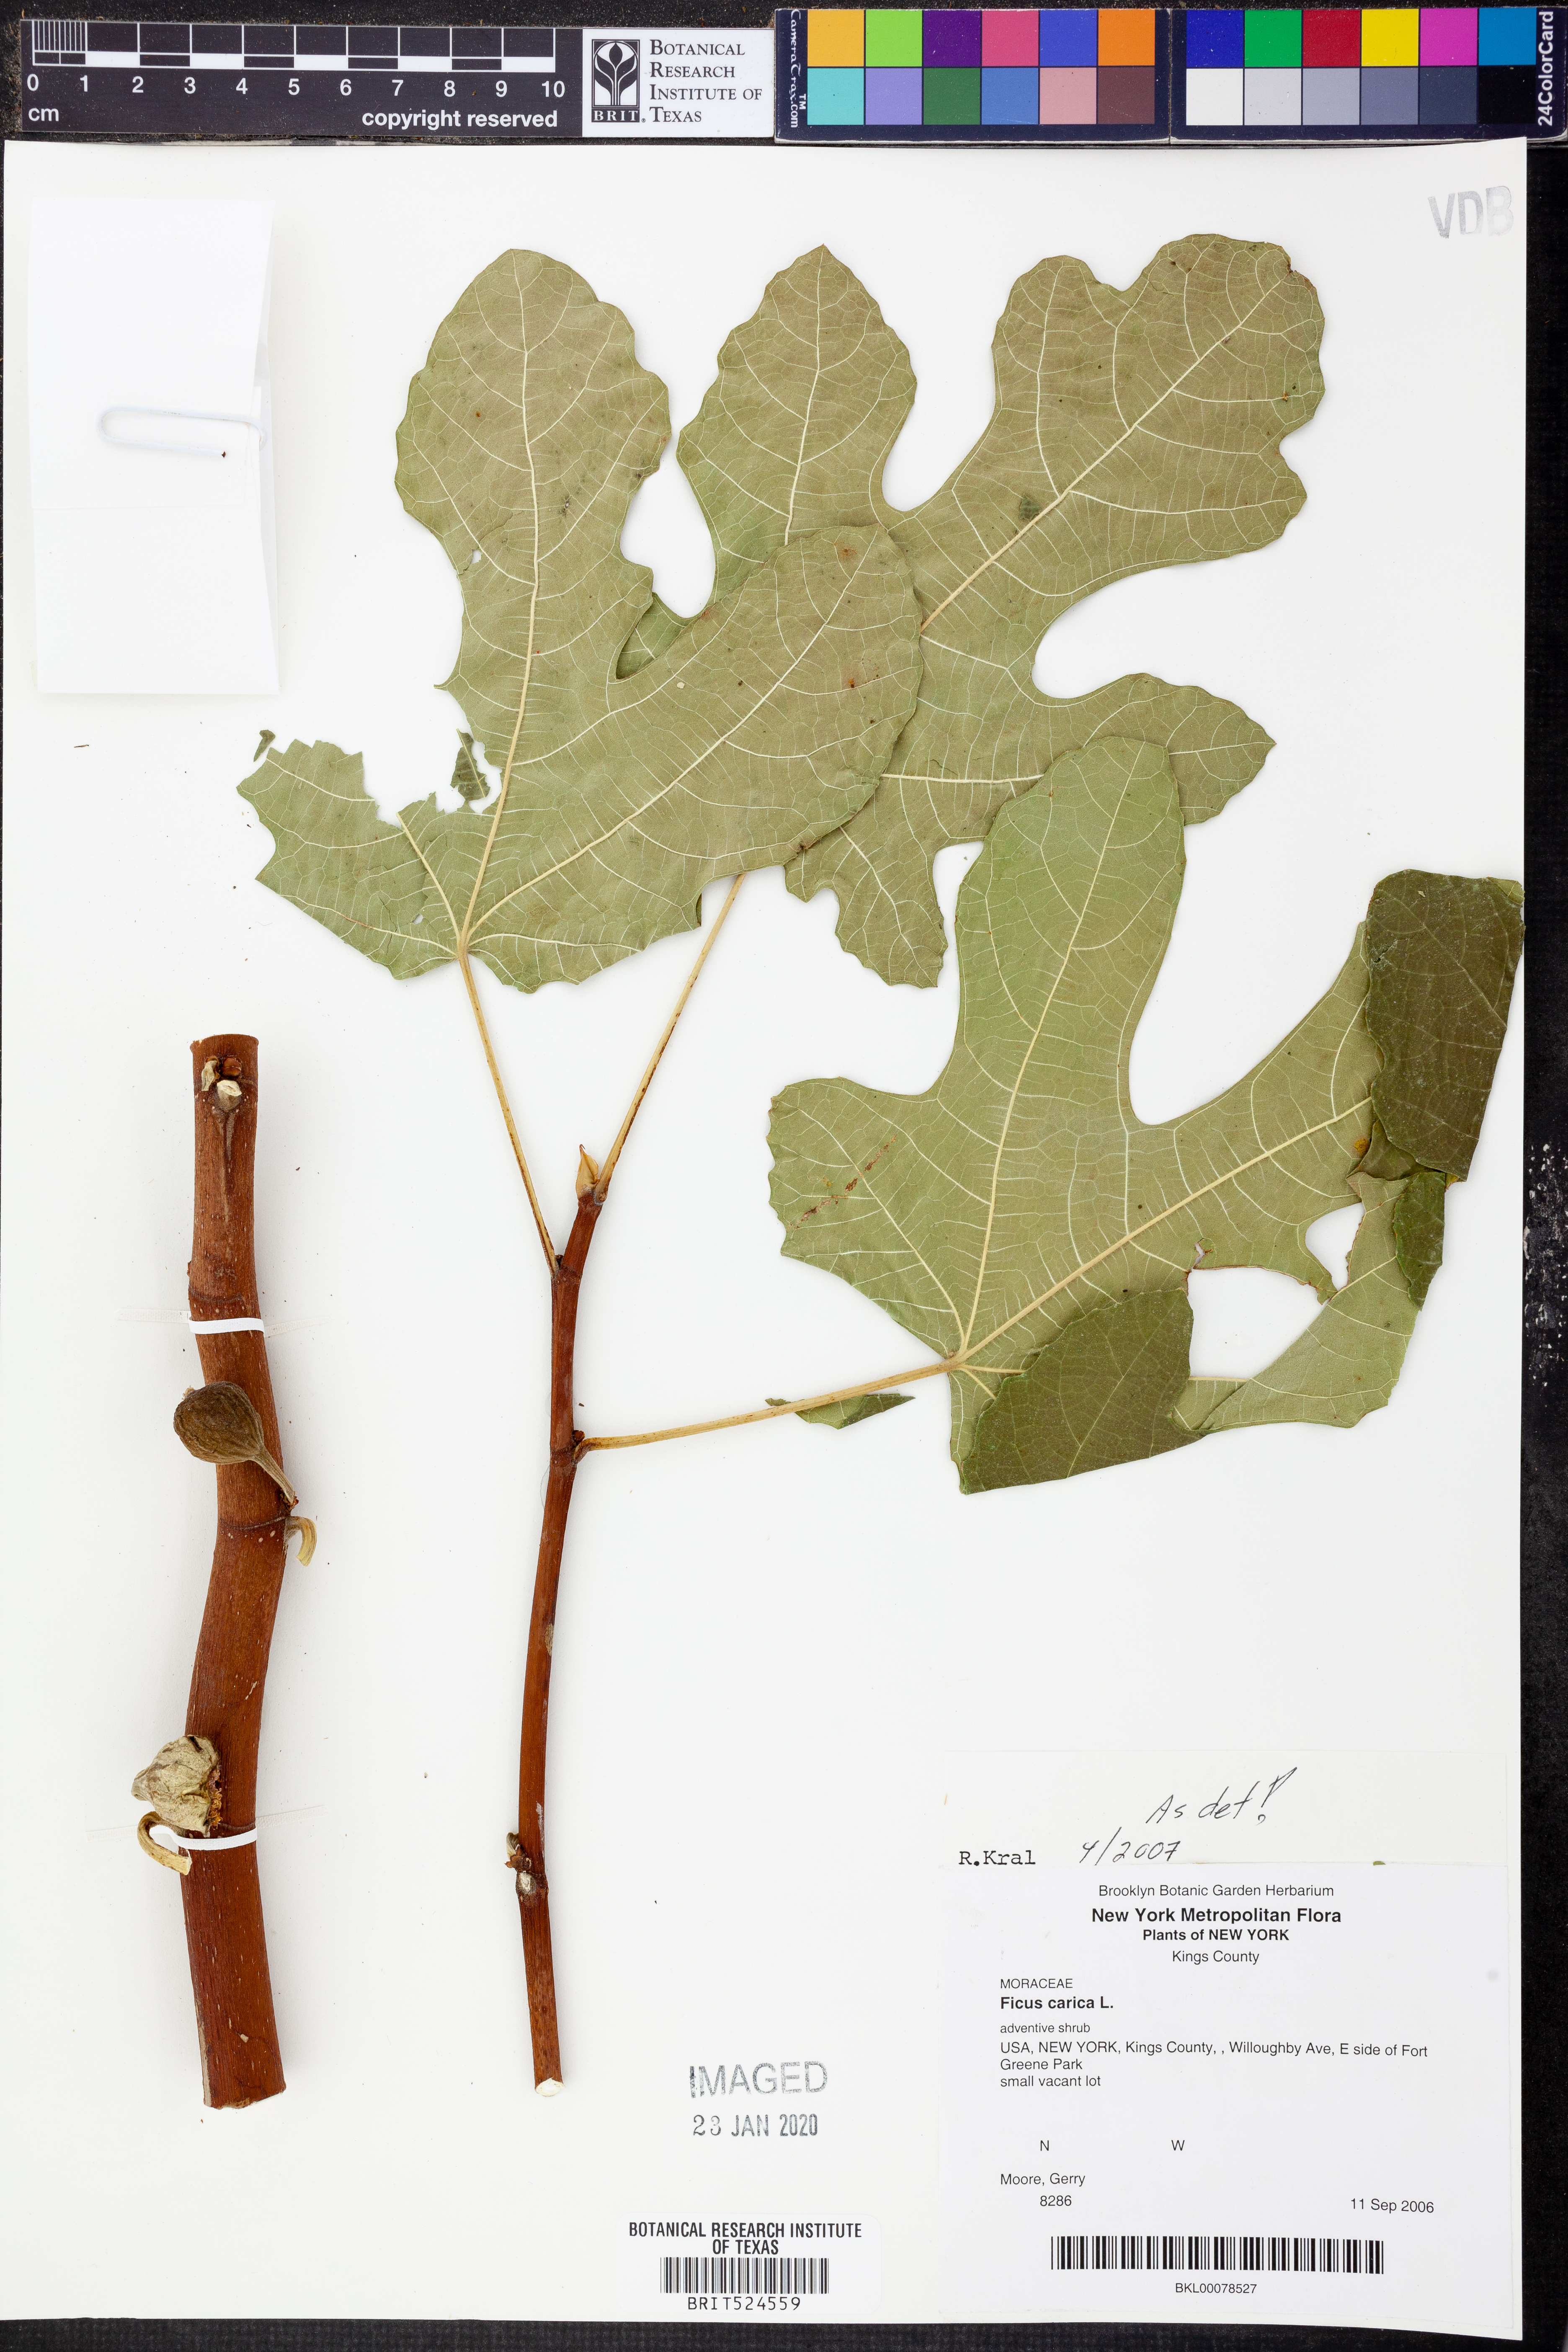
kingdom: Plantae
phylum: Tracheophyta
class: Magnoliopsida
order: Rosales
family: Moraceae
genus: Ficus
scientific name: Ficus carica
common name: Fig
